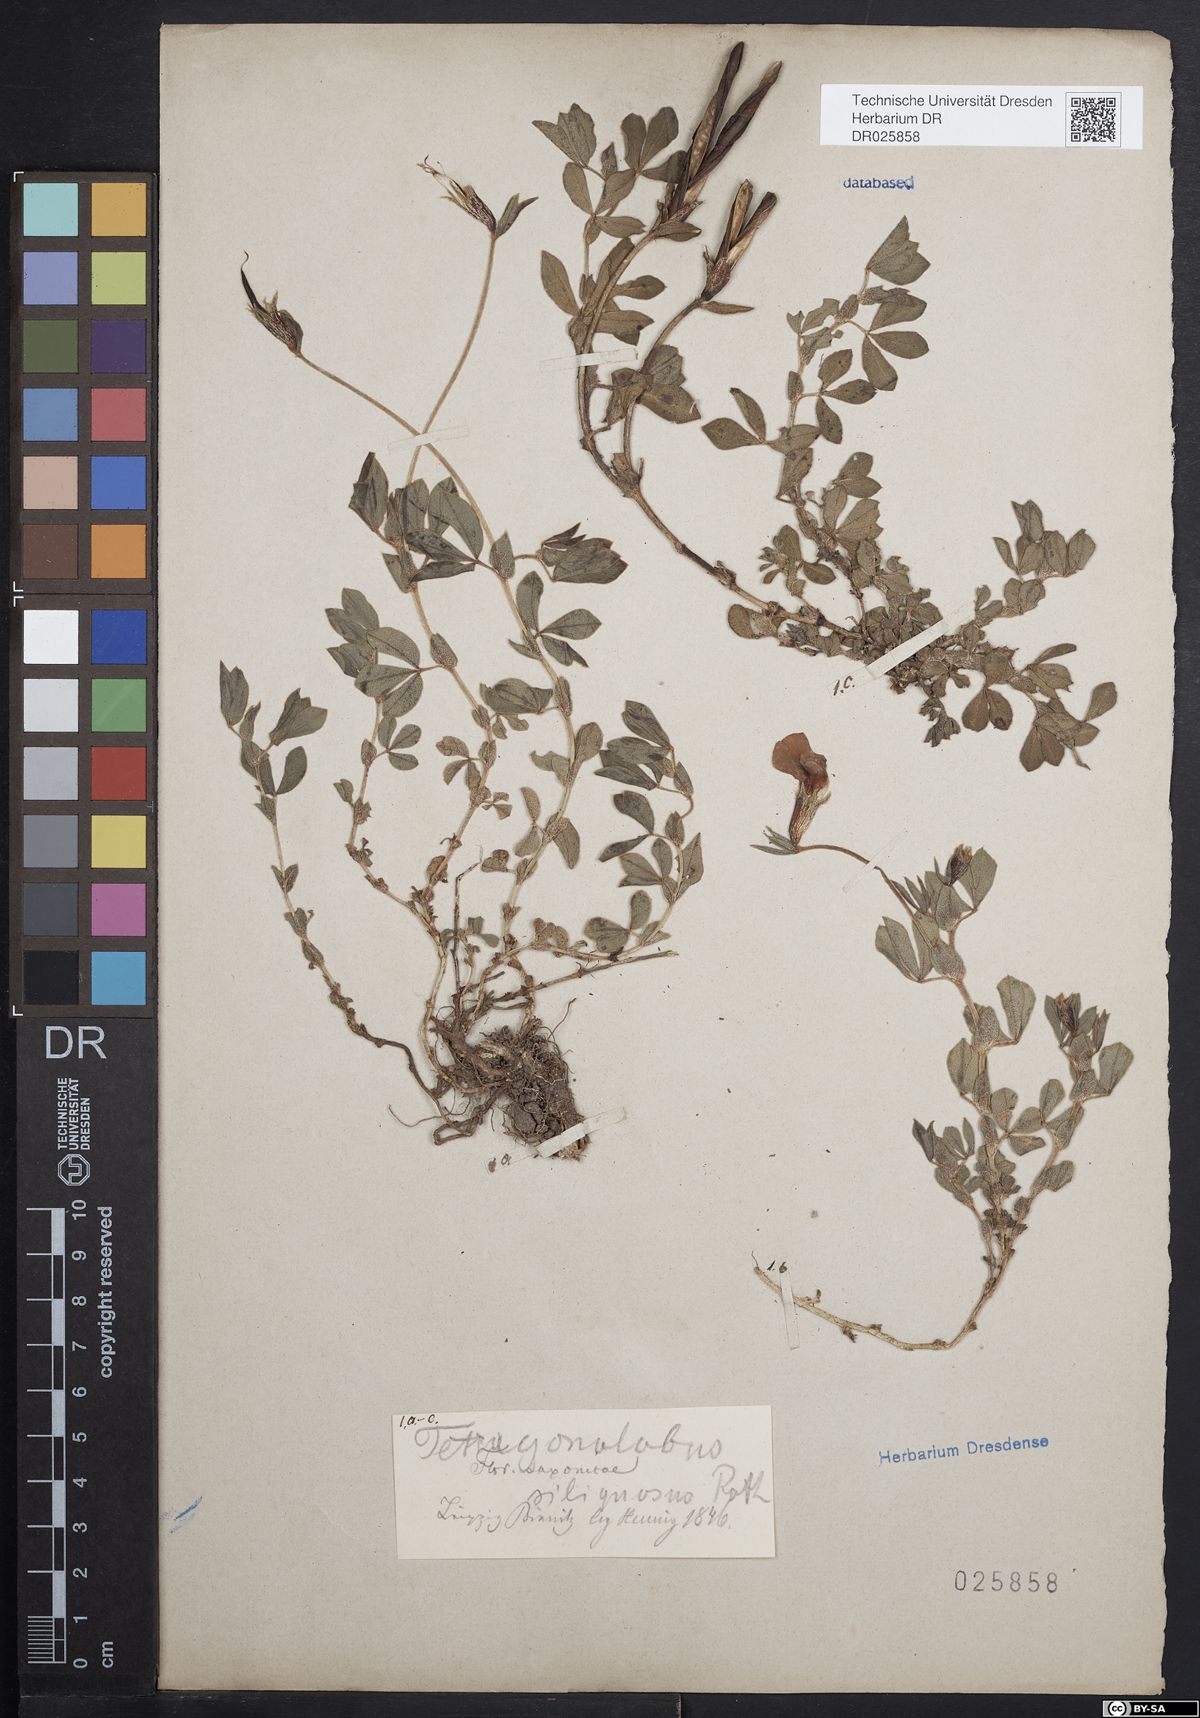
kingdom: Plantae
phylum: Tracheophyta
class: Magnoliopsida
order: Fabales
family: Fabaceae
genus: Lotus
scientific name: Lotus maritimus
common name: Dragon's-teeth
